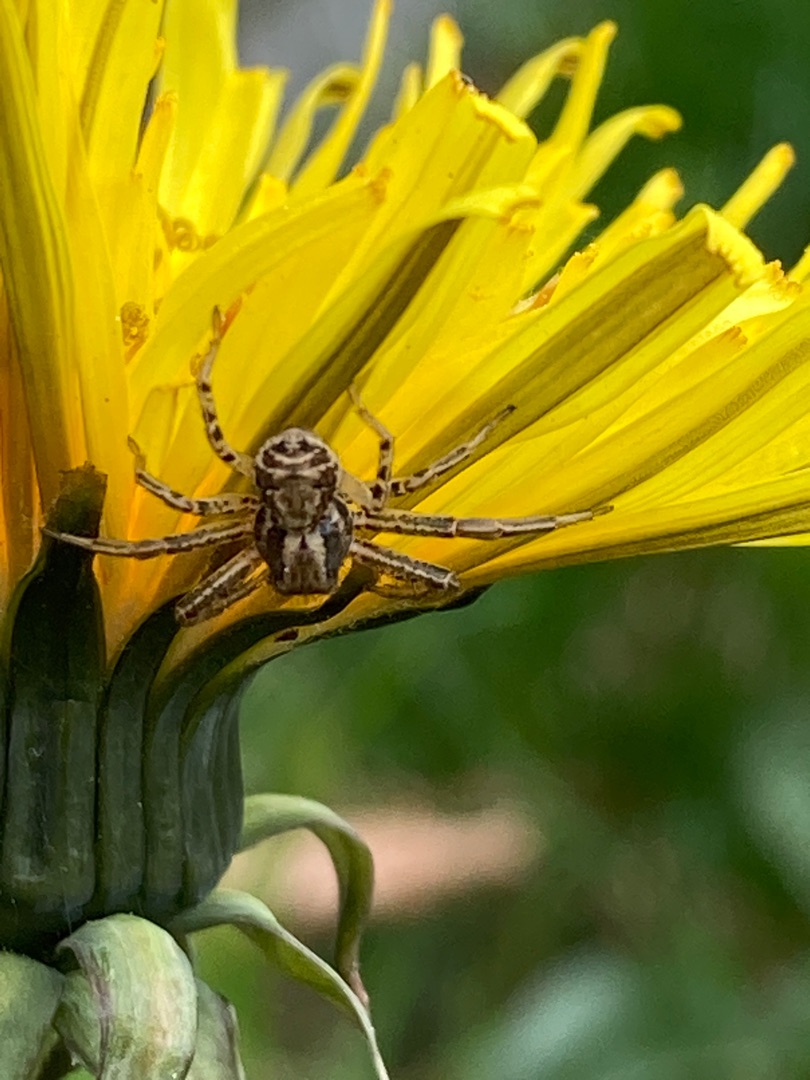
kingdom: Animalia
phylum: Arthropoda
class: Arachnida
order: Araneae
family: Thomisidae
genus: Xysticus
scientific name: Xysticus
